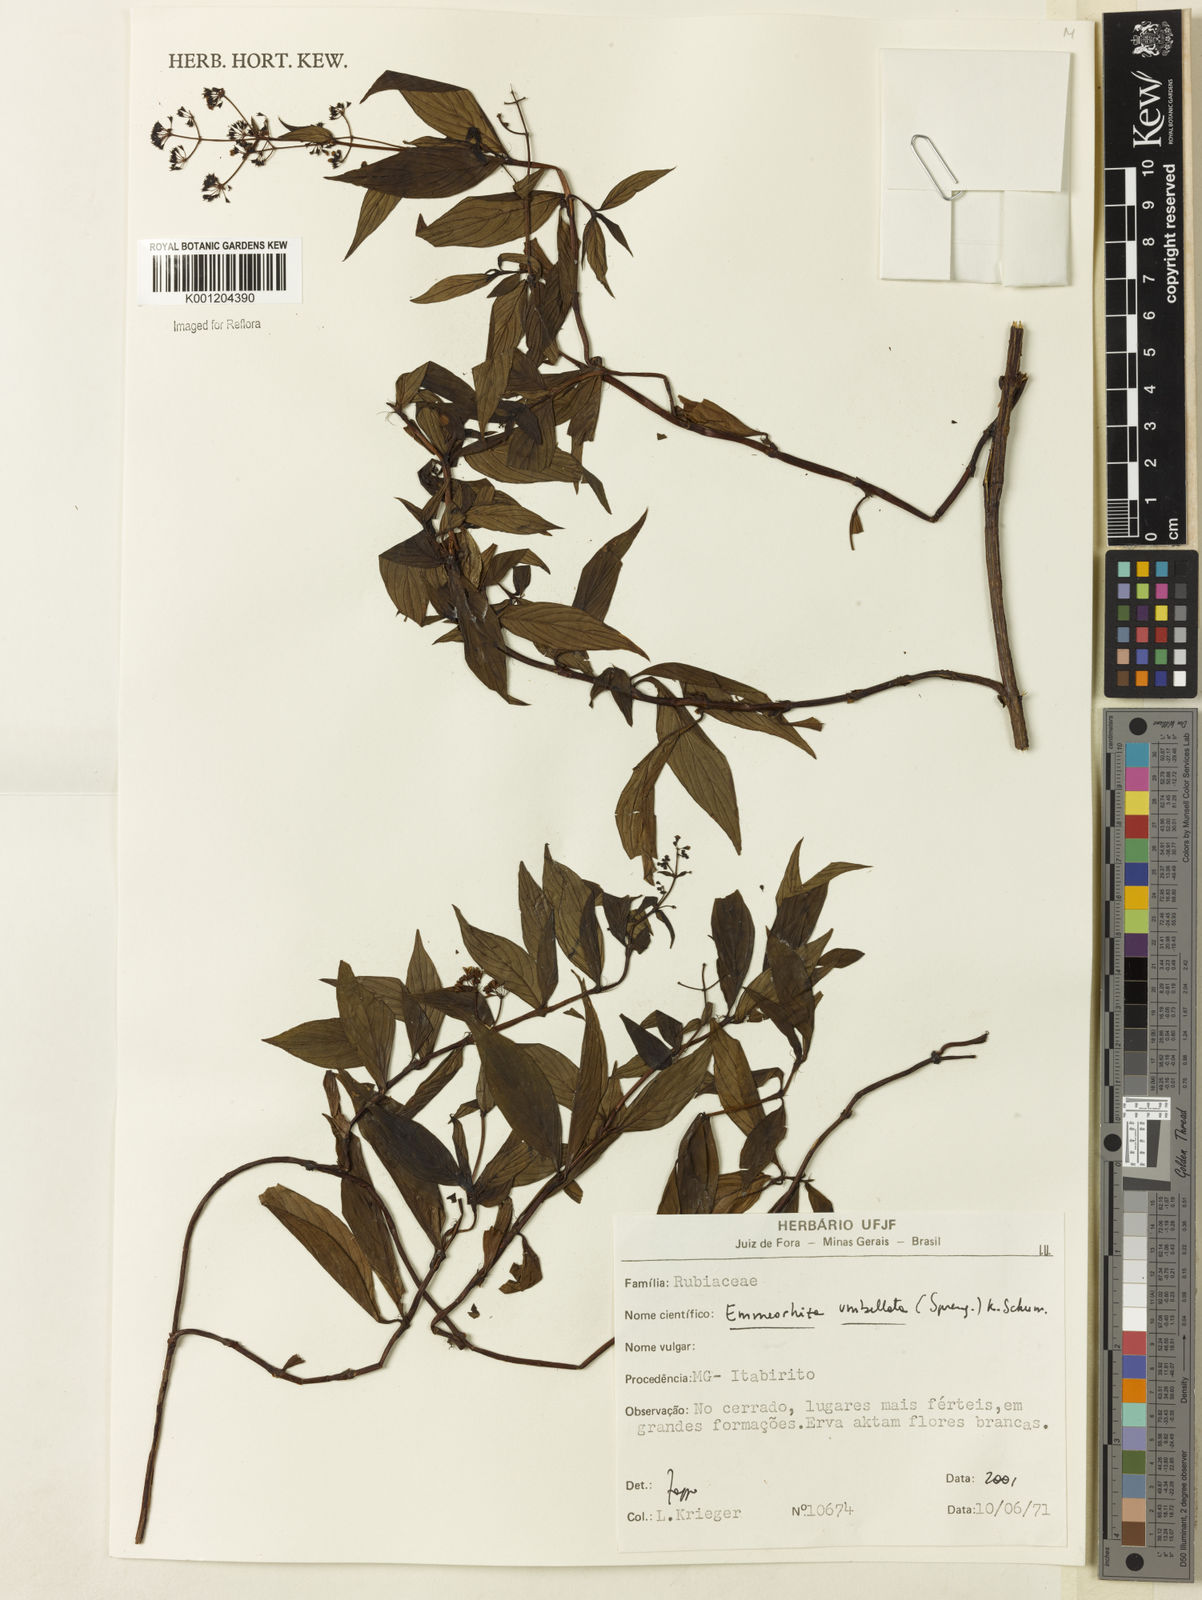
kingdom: Plantae
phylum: Tracheophyta
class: Magnoliopsida
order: Gentianales
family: Rubiaceae
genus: Emmeorhiza
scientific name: Emmeorhiza umbellata
